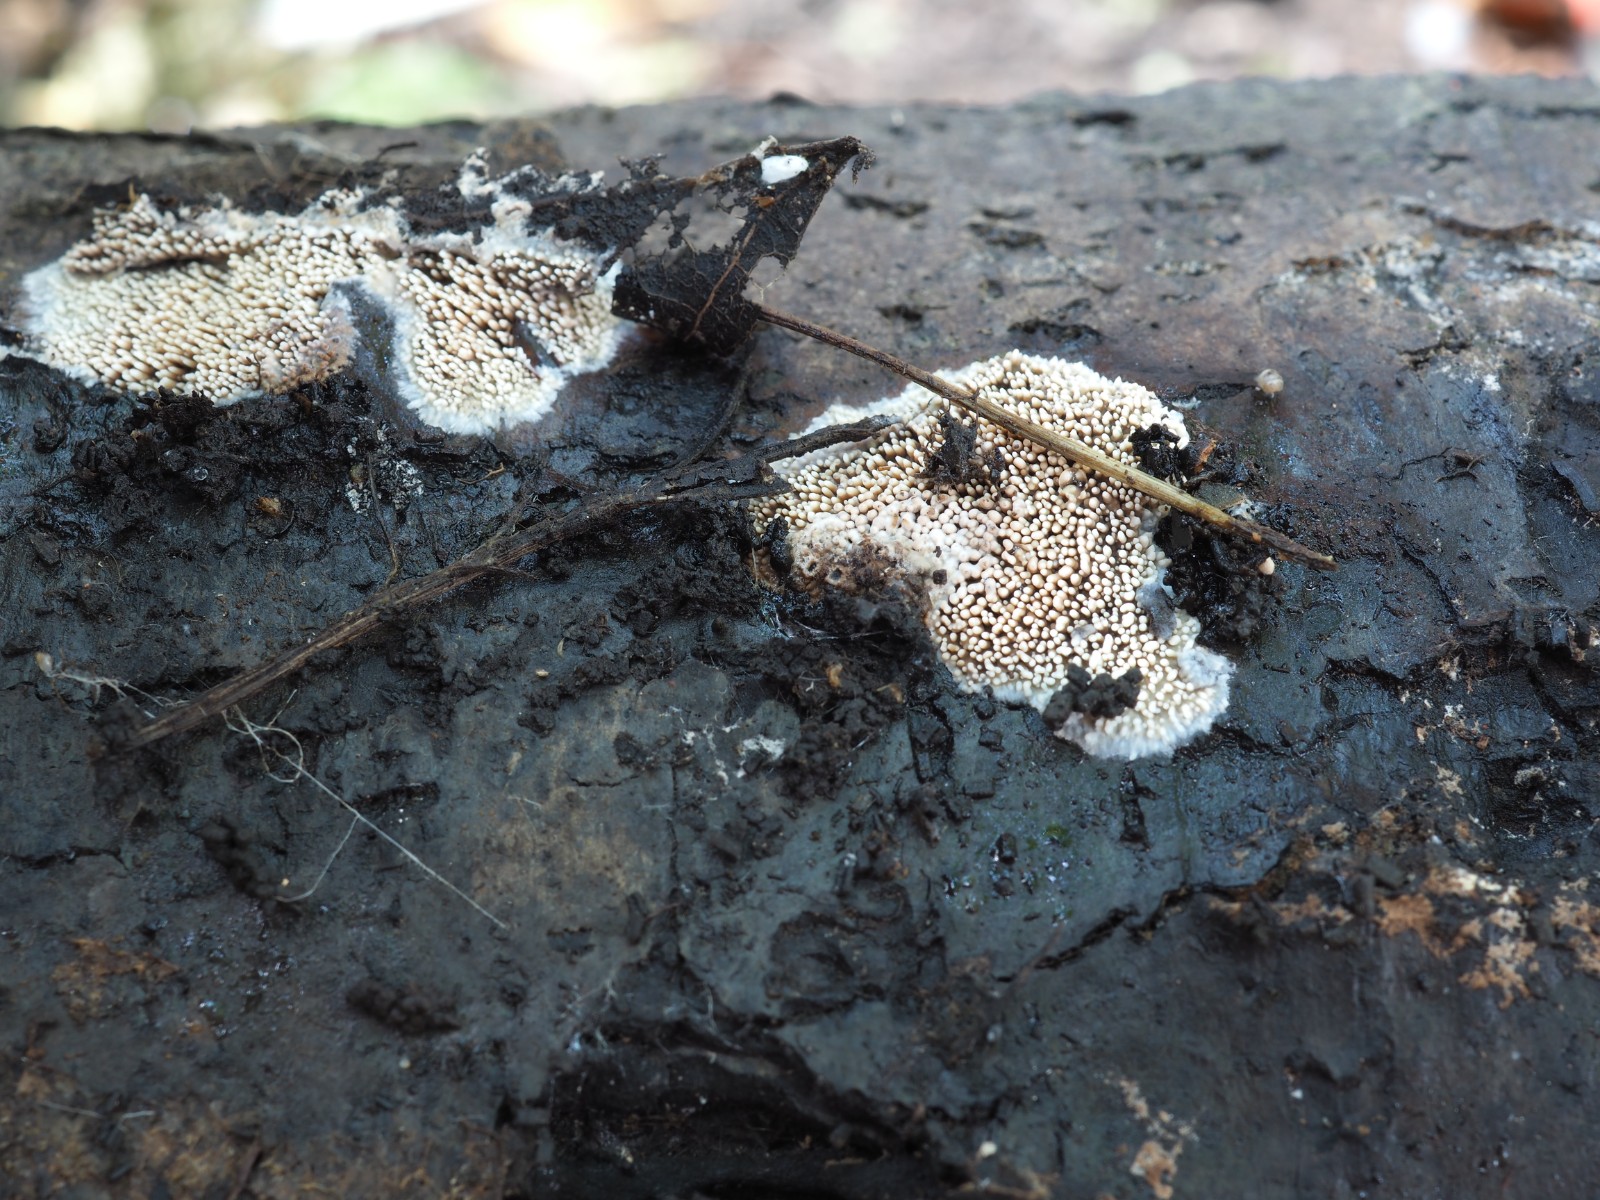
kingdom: Fungi
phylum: Basidiomycota
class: Agaricomycetes
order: Polyporales
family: Meruliaceae
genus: Mycoacia
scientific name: Mycoacia fuscoatra
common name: mørk vokspig
